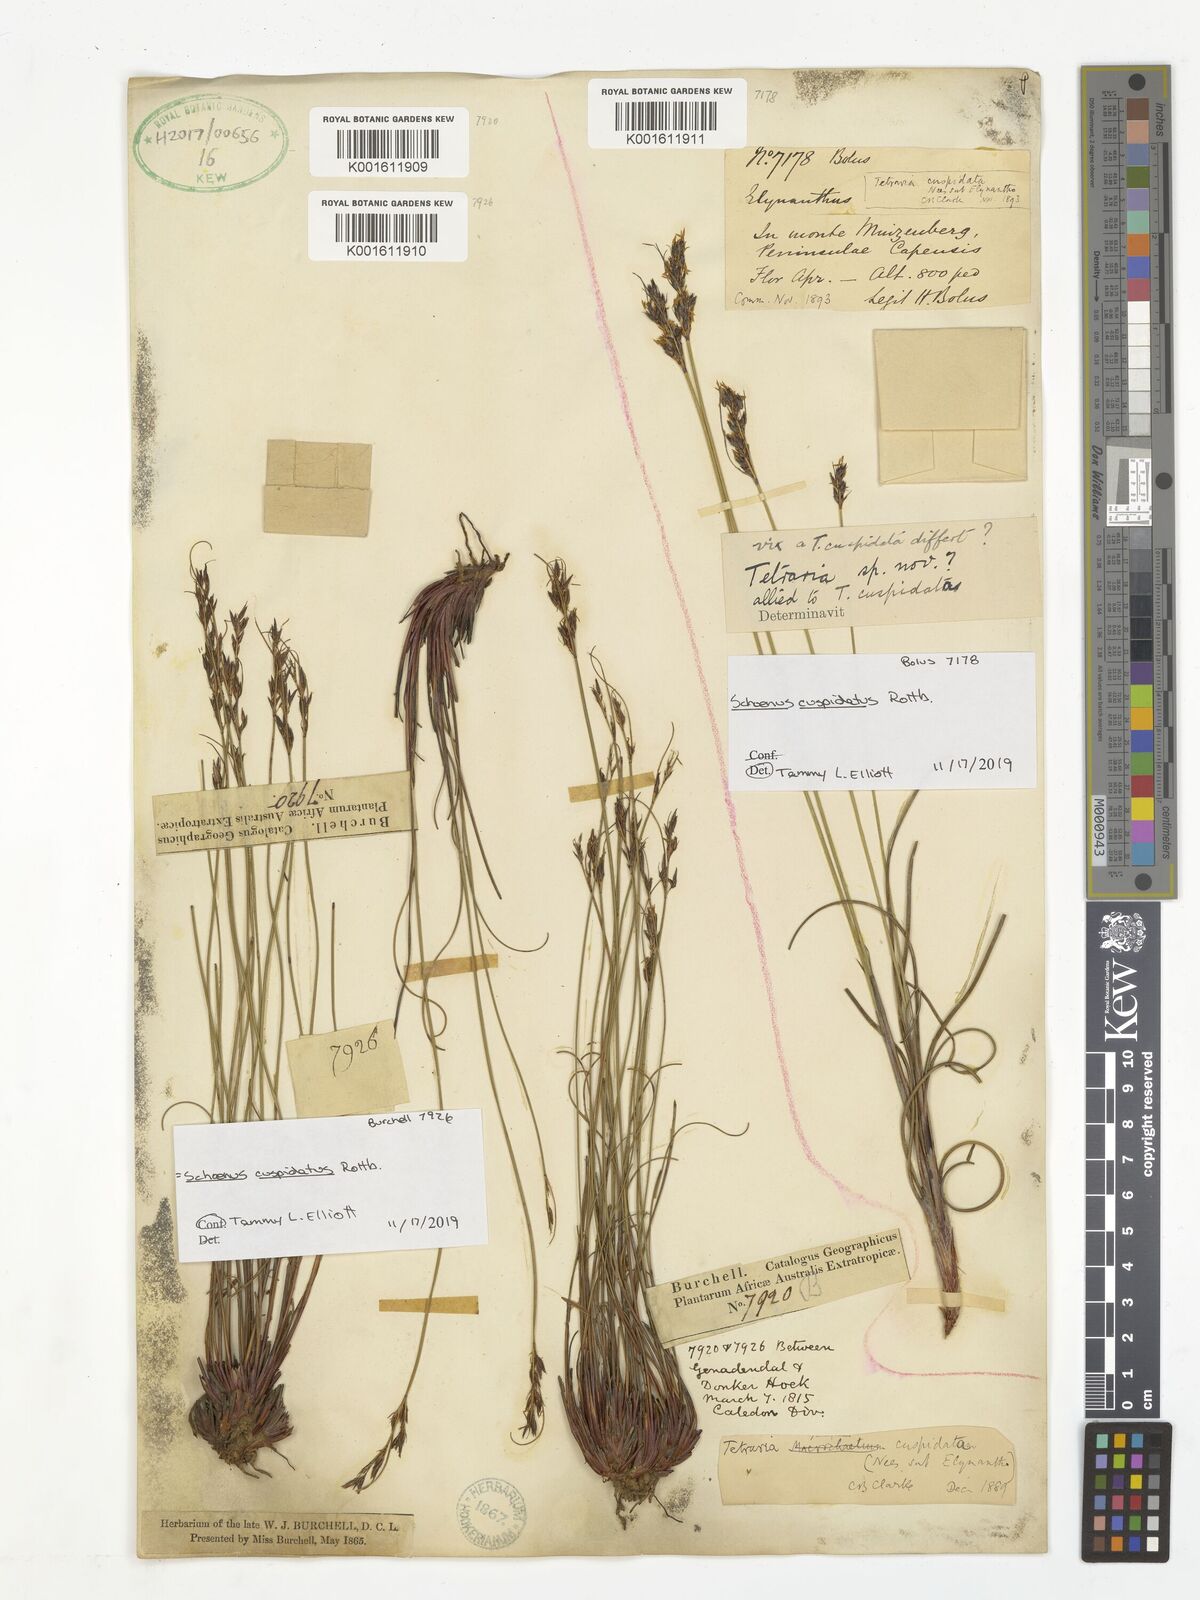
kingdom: Plantae
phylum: Tracheophyta
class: Liliopsida
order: Poales
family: Cyperaceae
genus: Schoenus
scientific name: Schoenus cuspidatus
